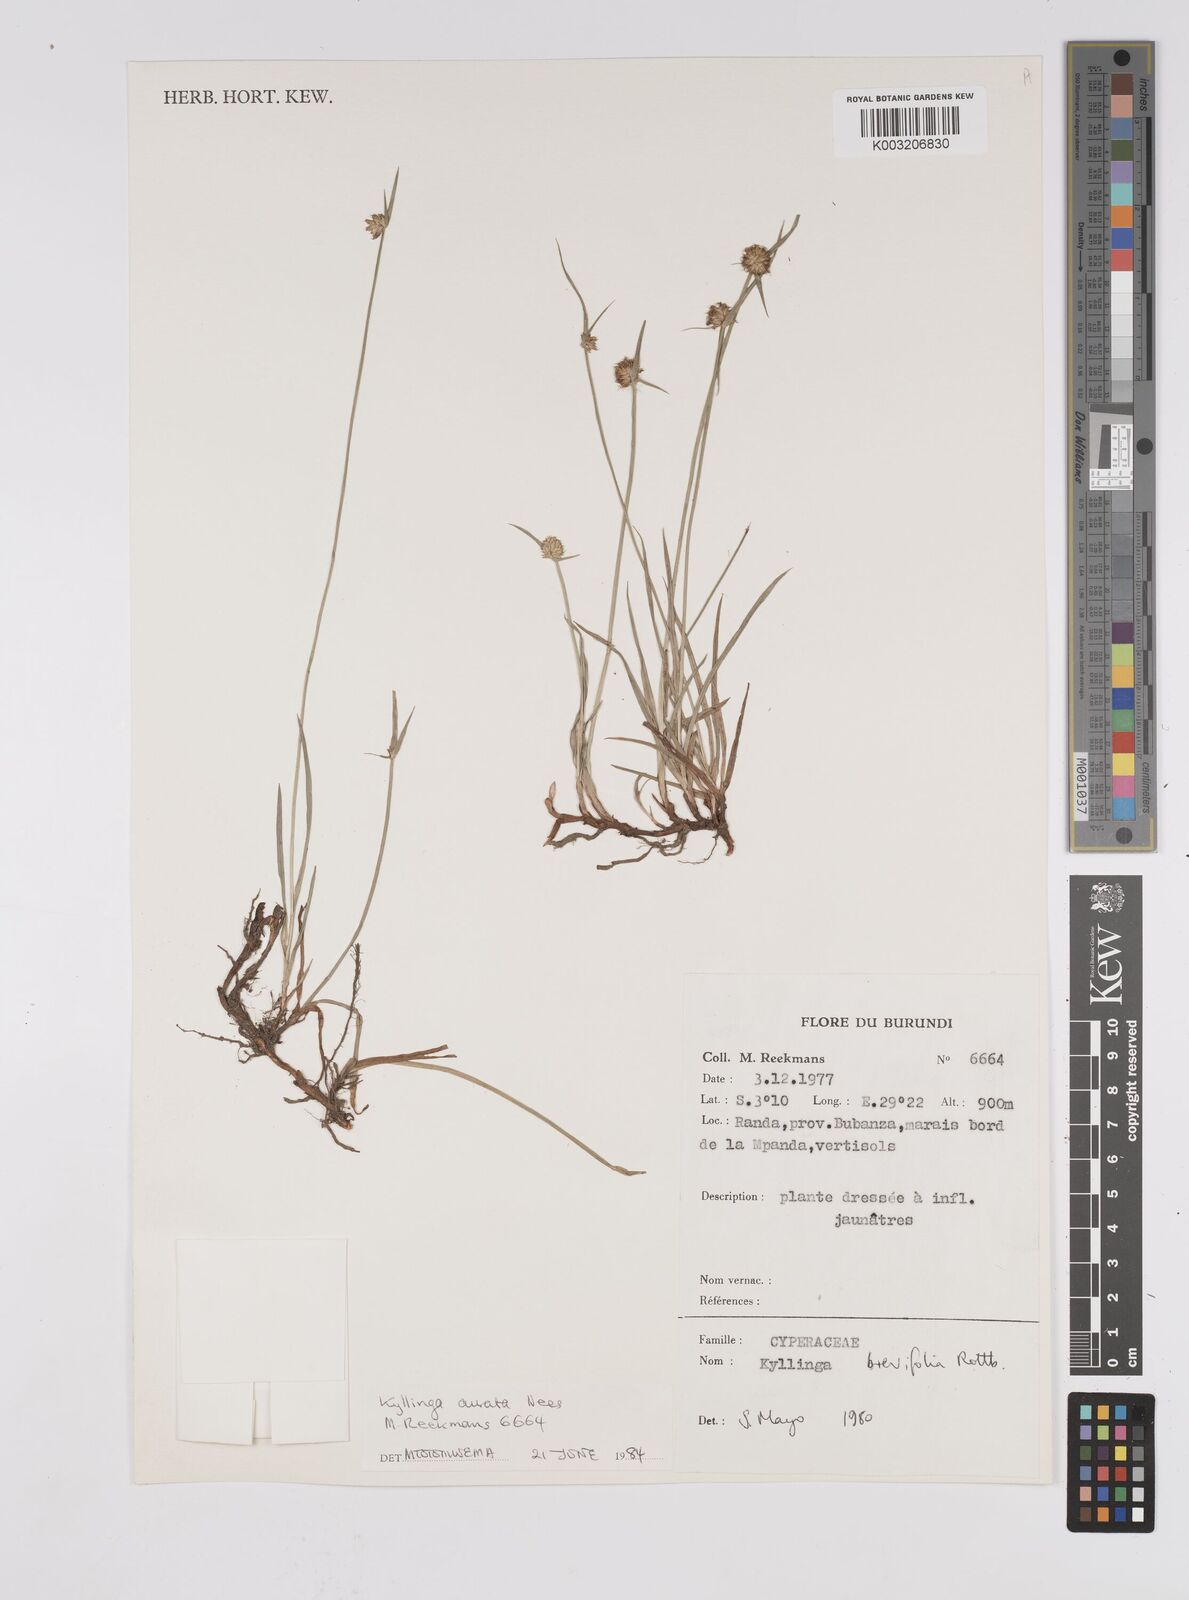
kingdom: Plantae
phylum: Tracheophyta
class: Liliopsida
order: Poales
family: Cyperaceae
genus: Cyperus
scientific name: Cyperus erectus
